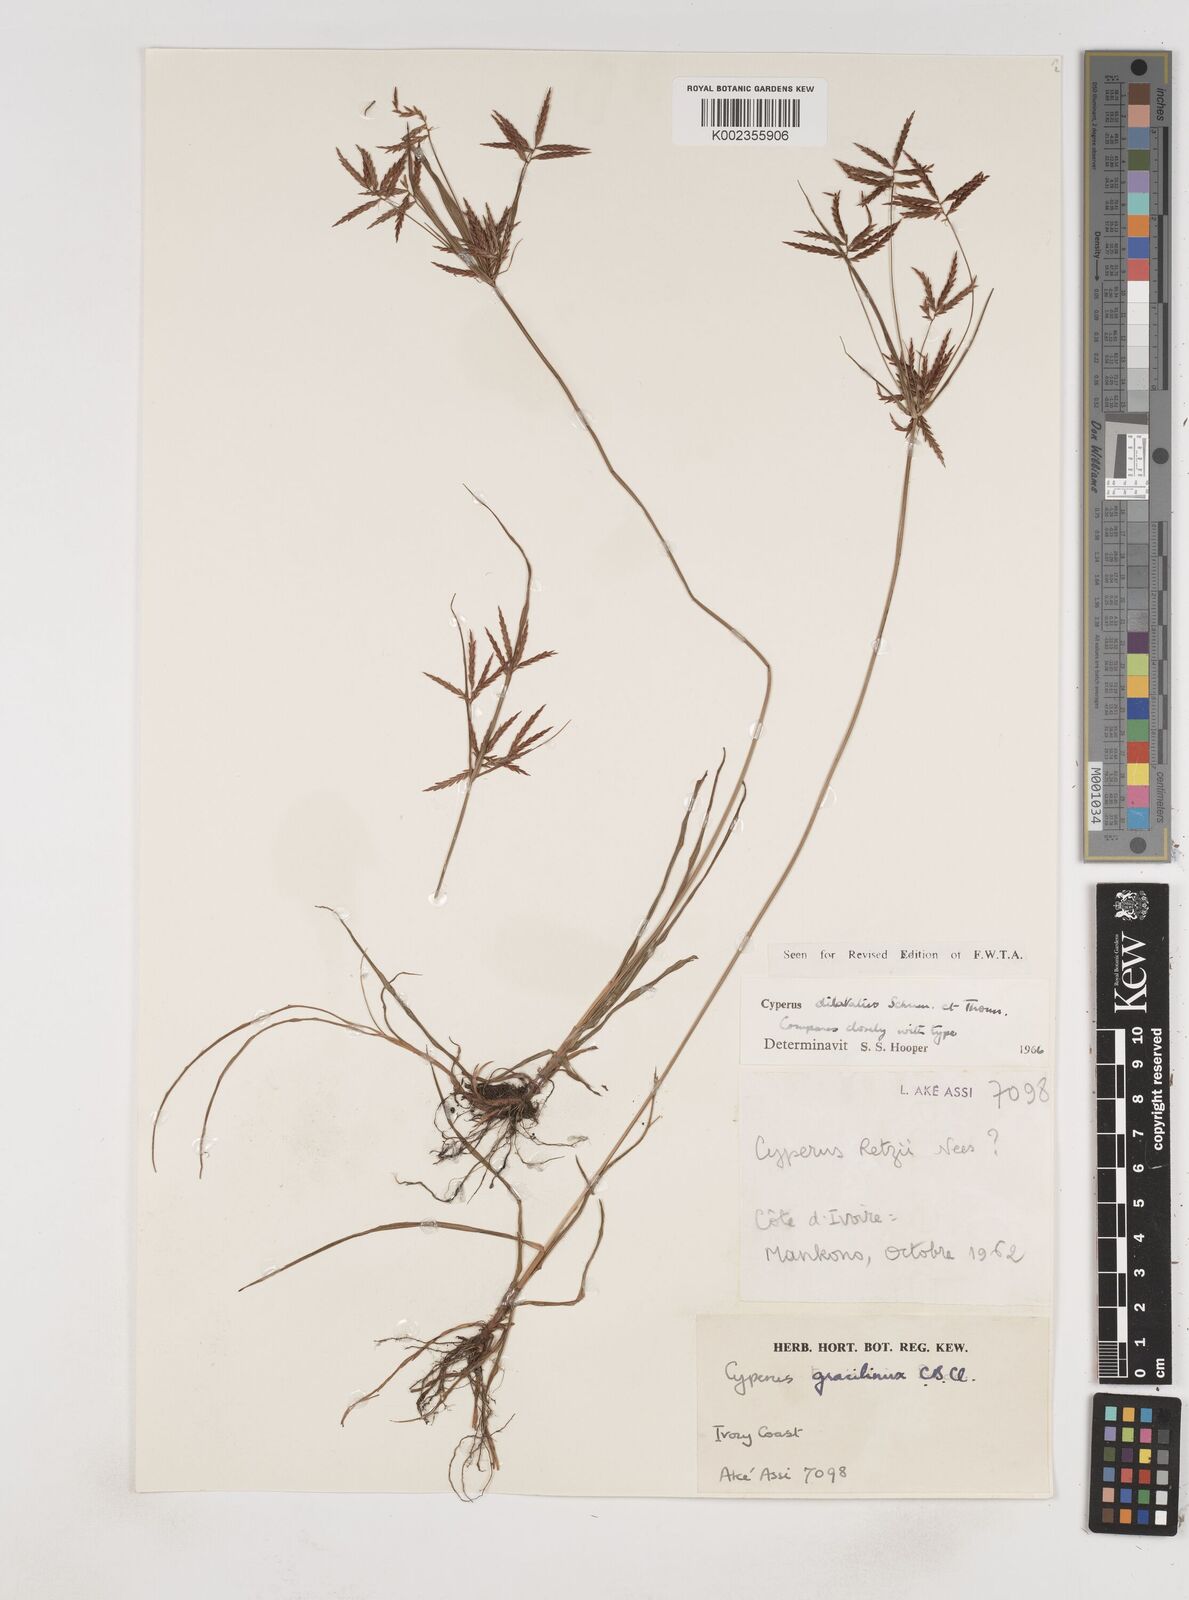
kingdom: Plantae
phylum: Tracheophyta
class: Liliopsida
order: Poales
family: Cyperaceae
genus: Cyperus
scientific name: Cyperus dilatatus
